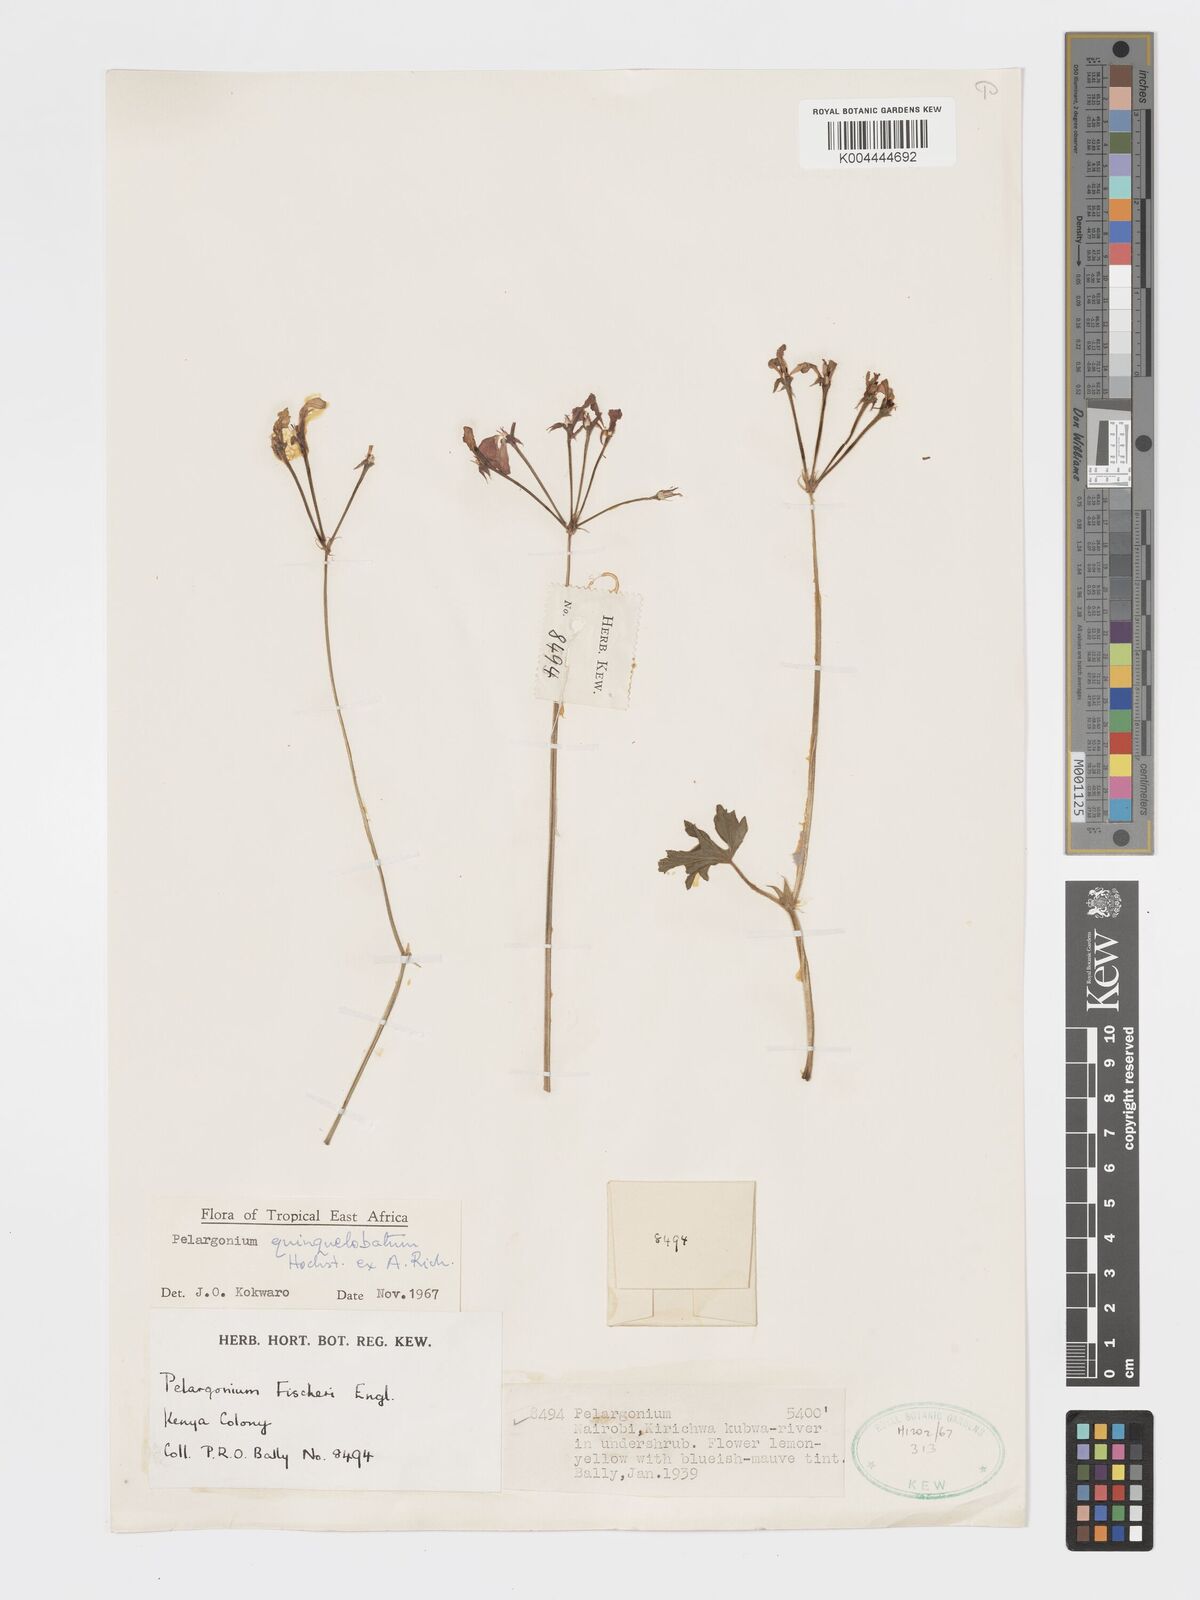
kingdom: Plantae
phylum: Tracheophyta
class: Magnoliopsida
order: Geraniales
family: Geraniaceae
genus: Pelargonium
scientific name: Pelargonium quinquelobatum
